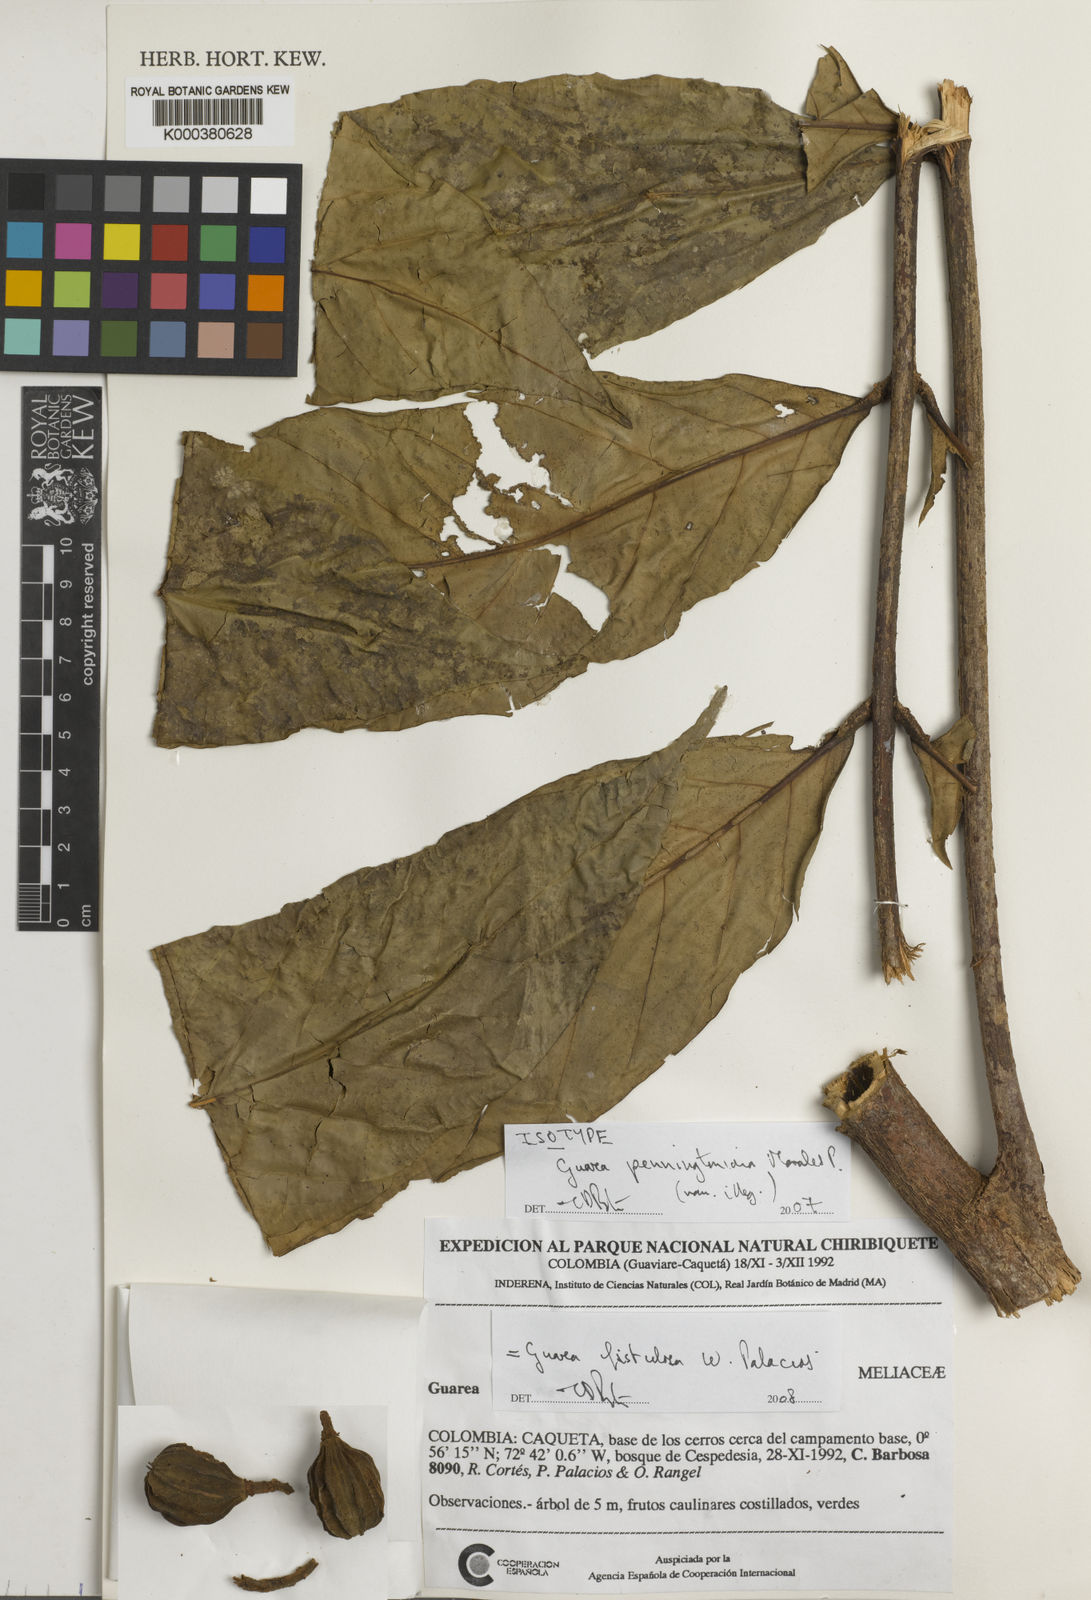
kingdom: Plantae
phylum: Tracheophyta
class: Magnoliopsida
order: Sapindales
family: Meliaceae
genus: Guarea
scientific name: Guarea
